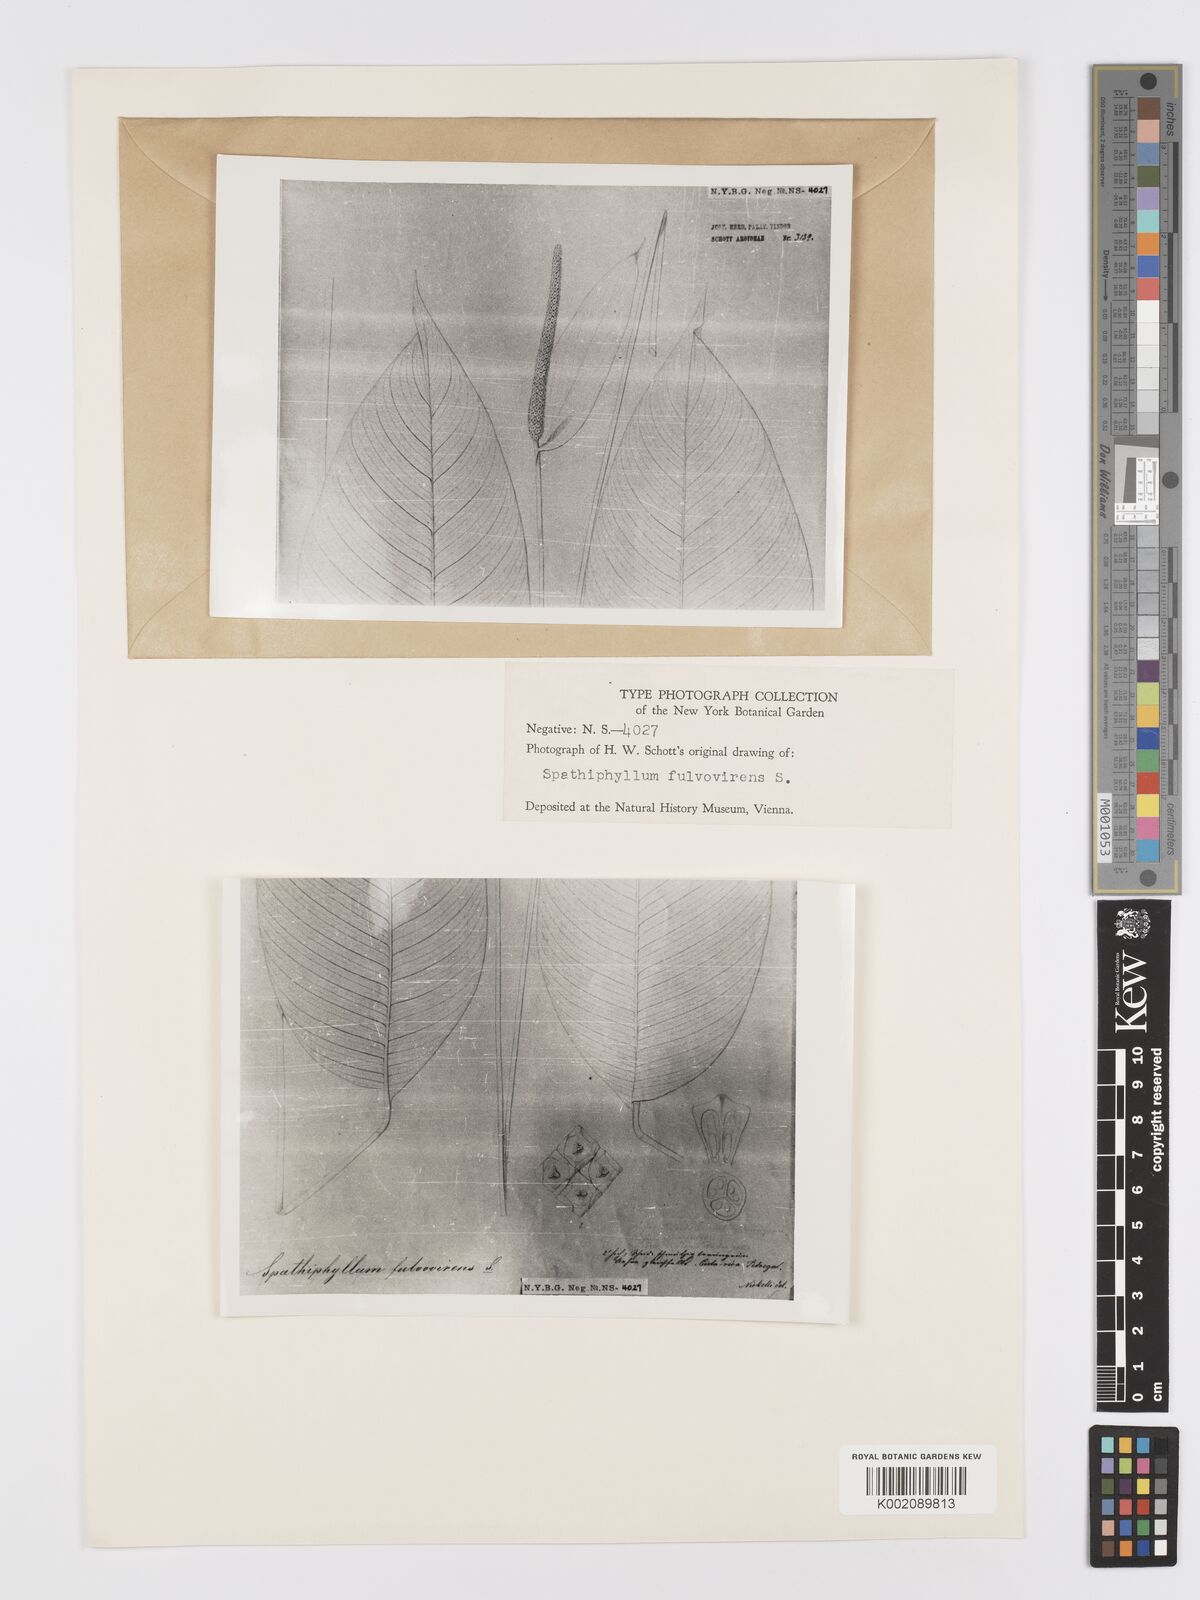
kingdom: Plantae
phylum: Tracheophyta
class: Liliopsida
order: Alismatales
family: Araceae
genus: Spathiphyllum
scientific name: Spathiphyllum fulvovirens
